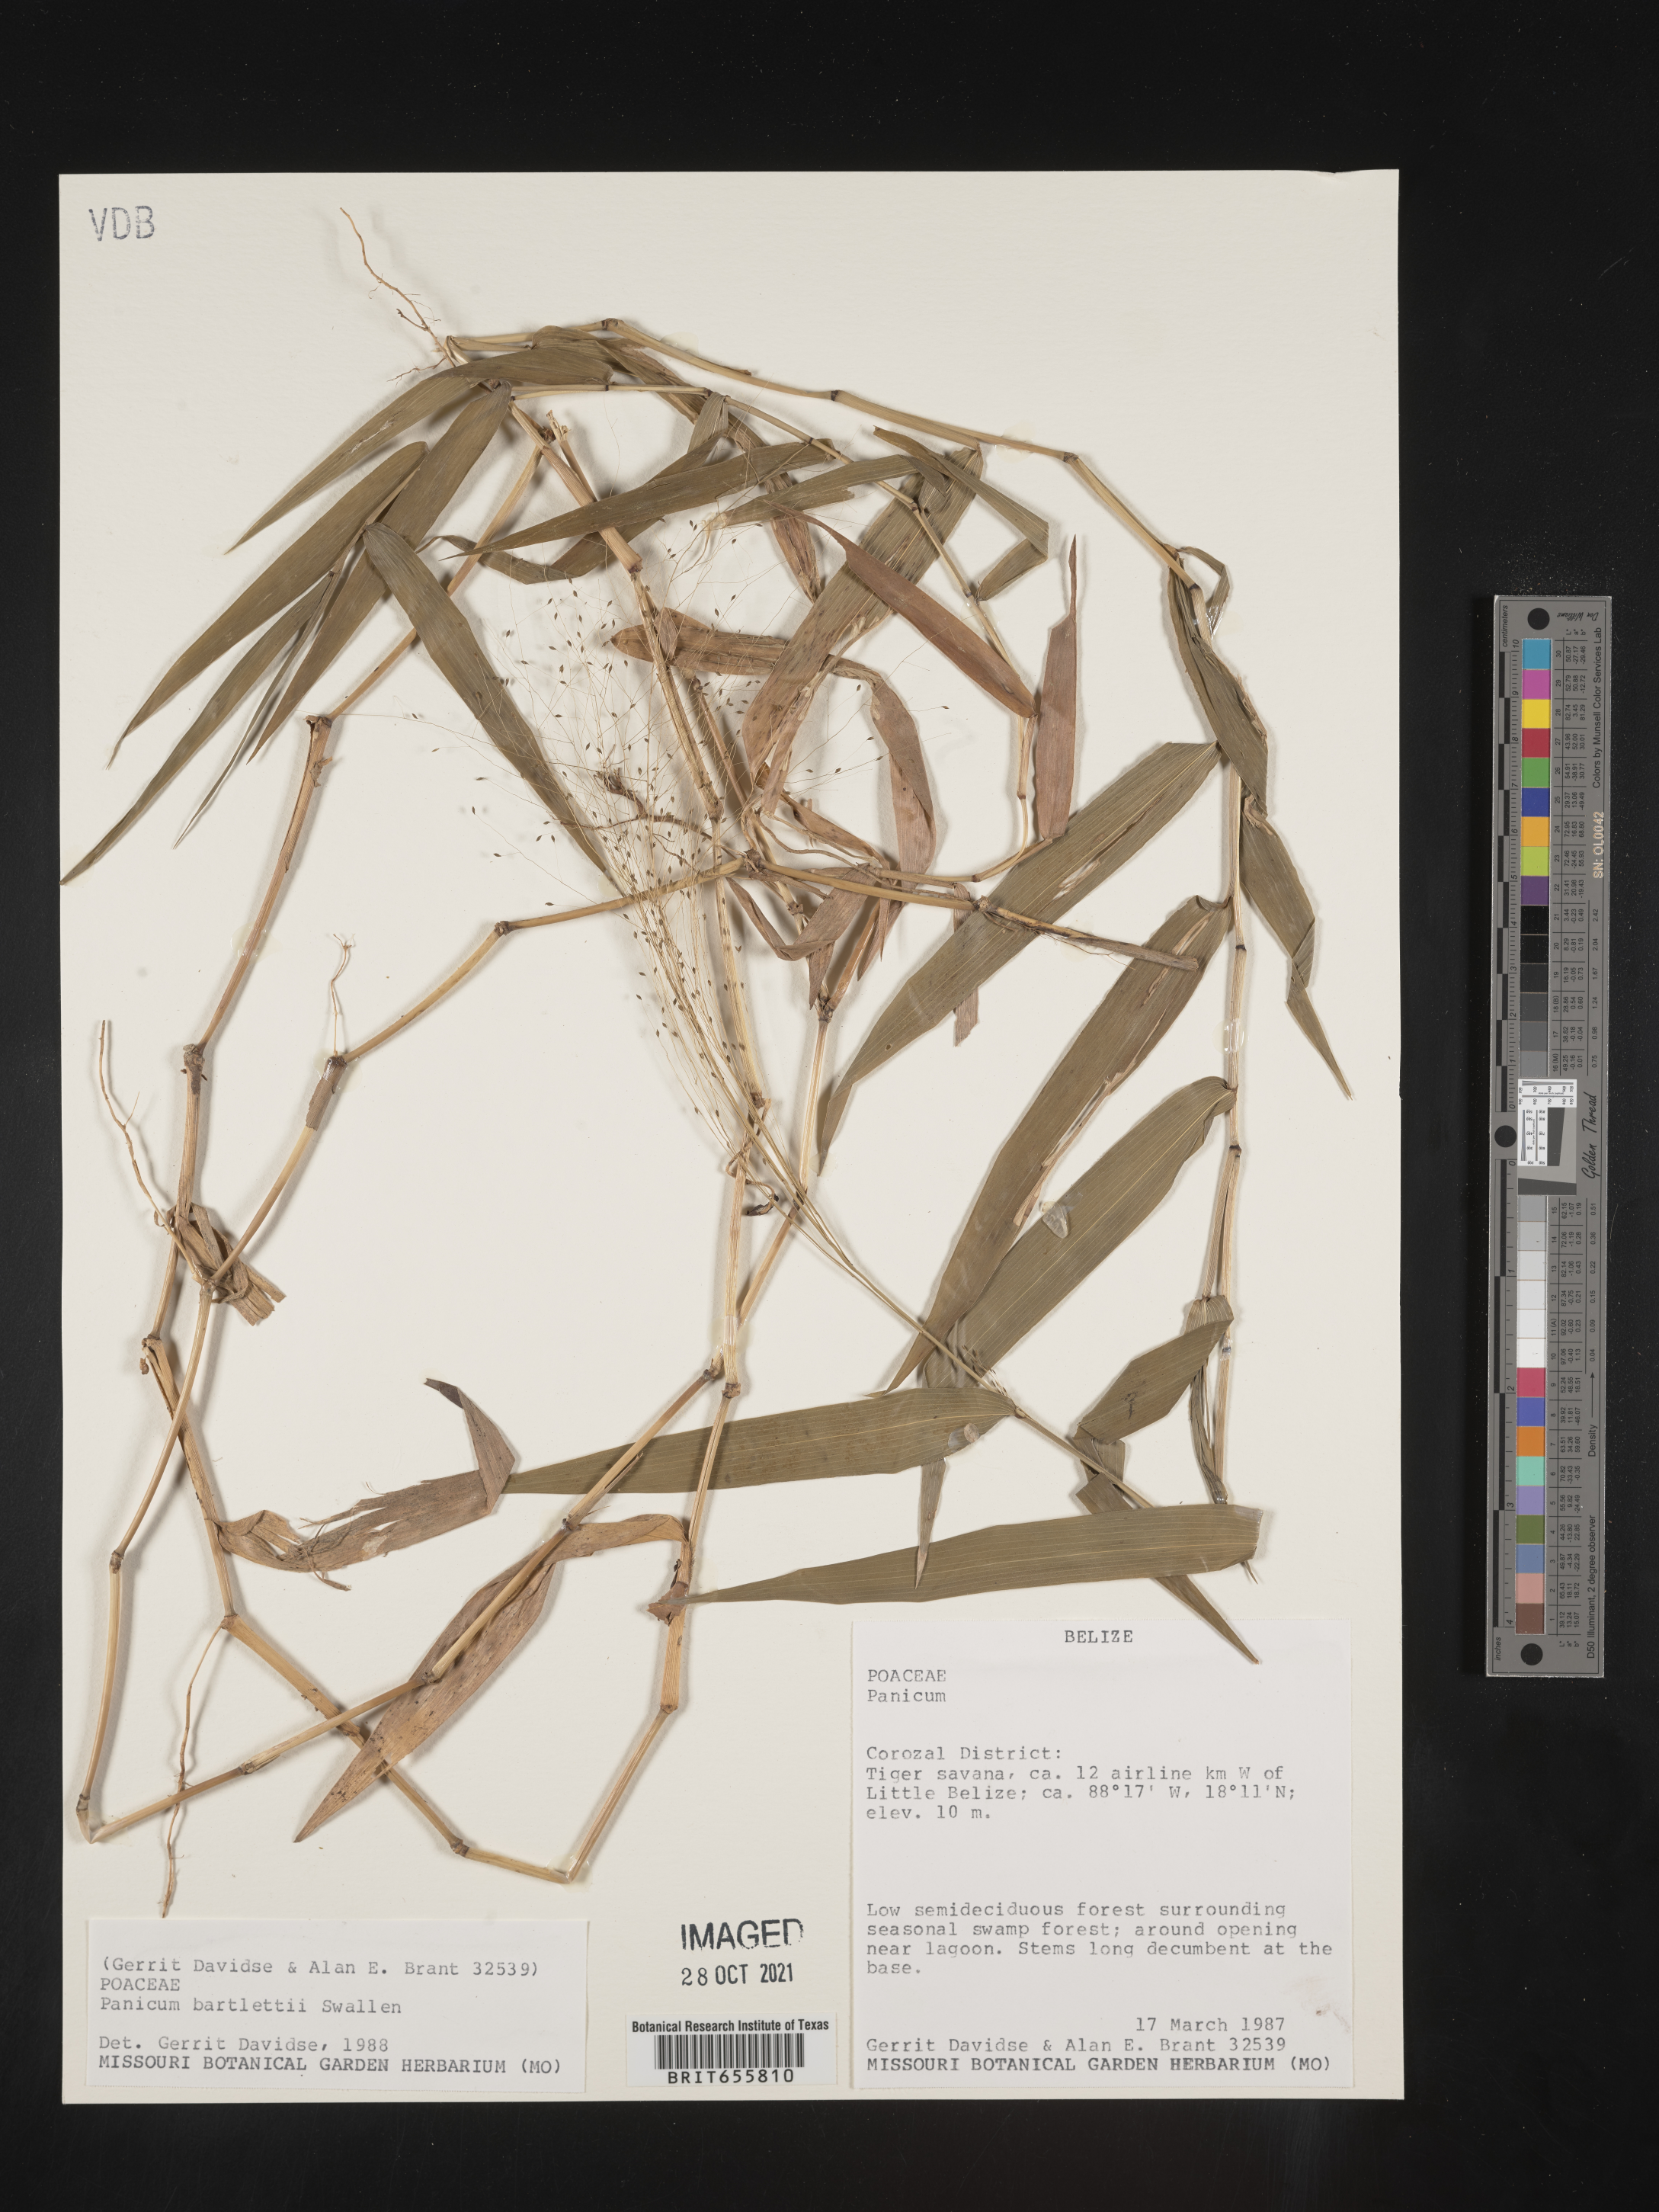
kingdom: Plantae
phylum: Tracheophyta
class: Liliopsida
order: Poales
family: Poaceae
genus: Panicum
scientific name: Panicum
